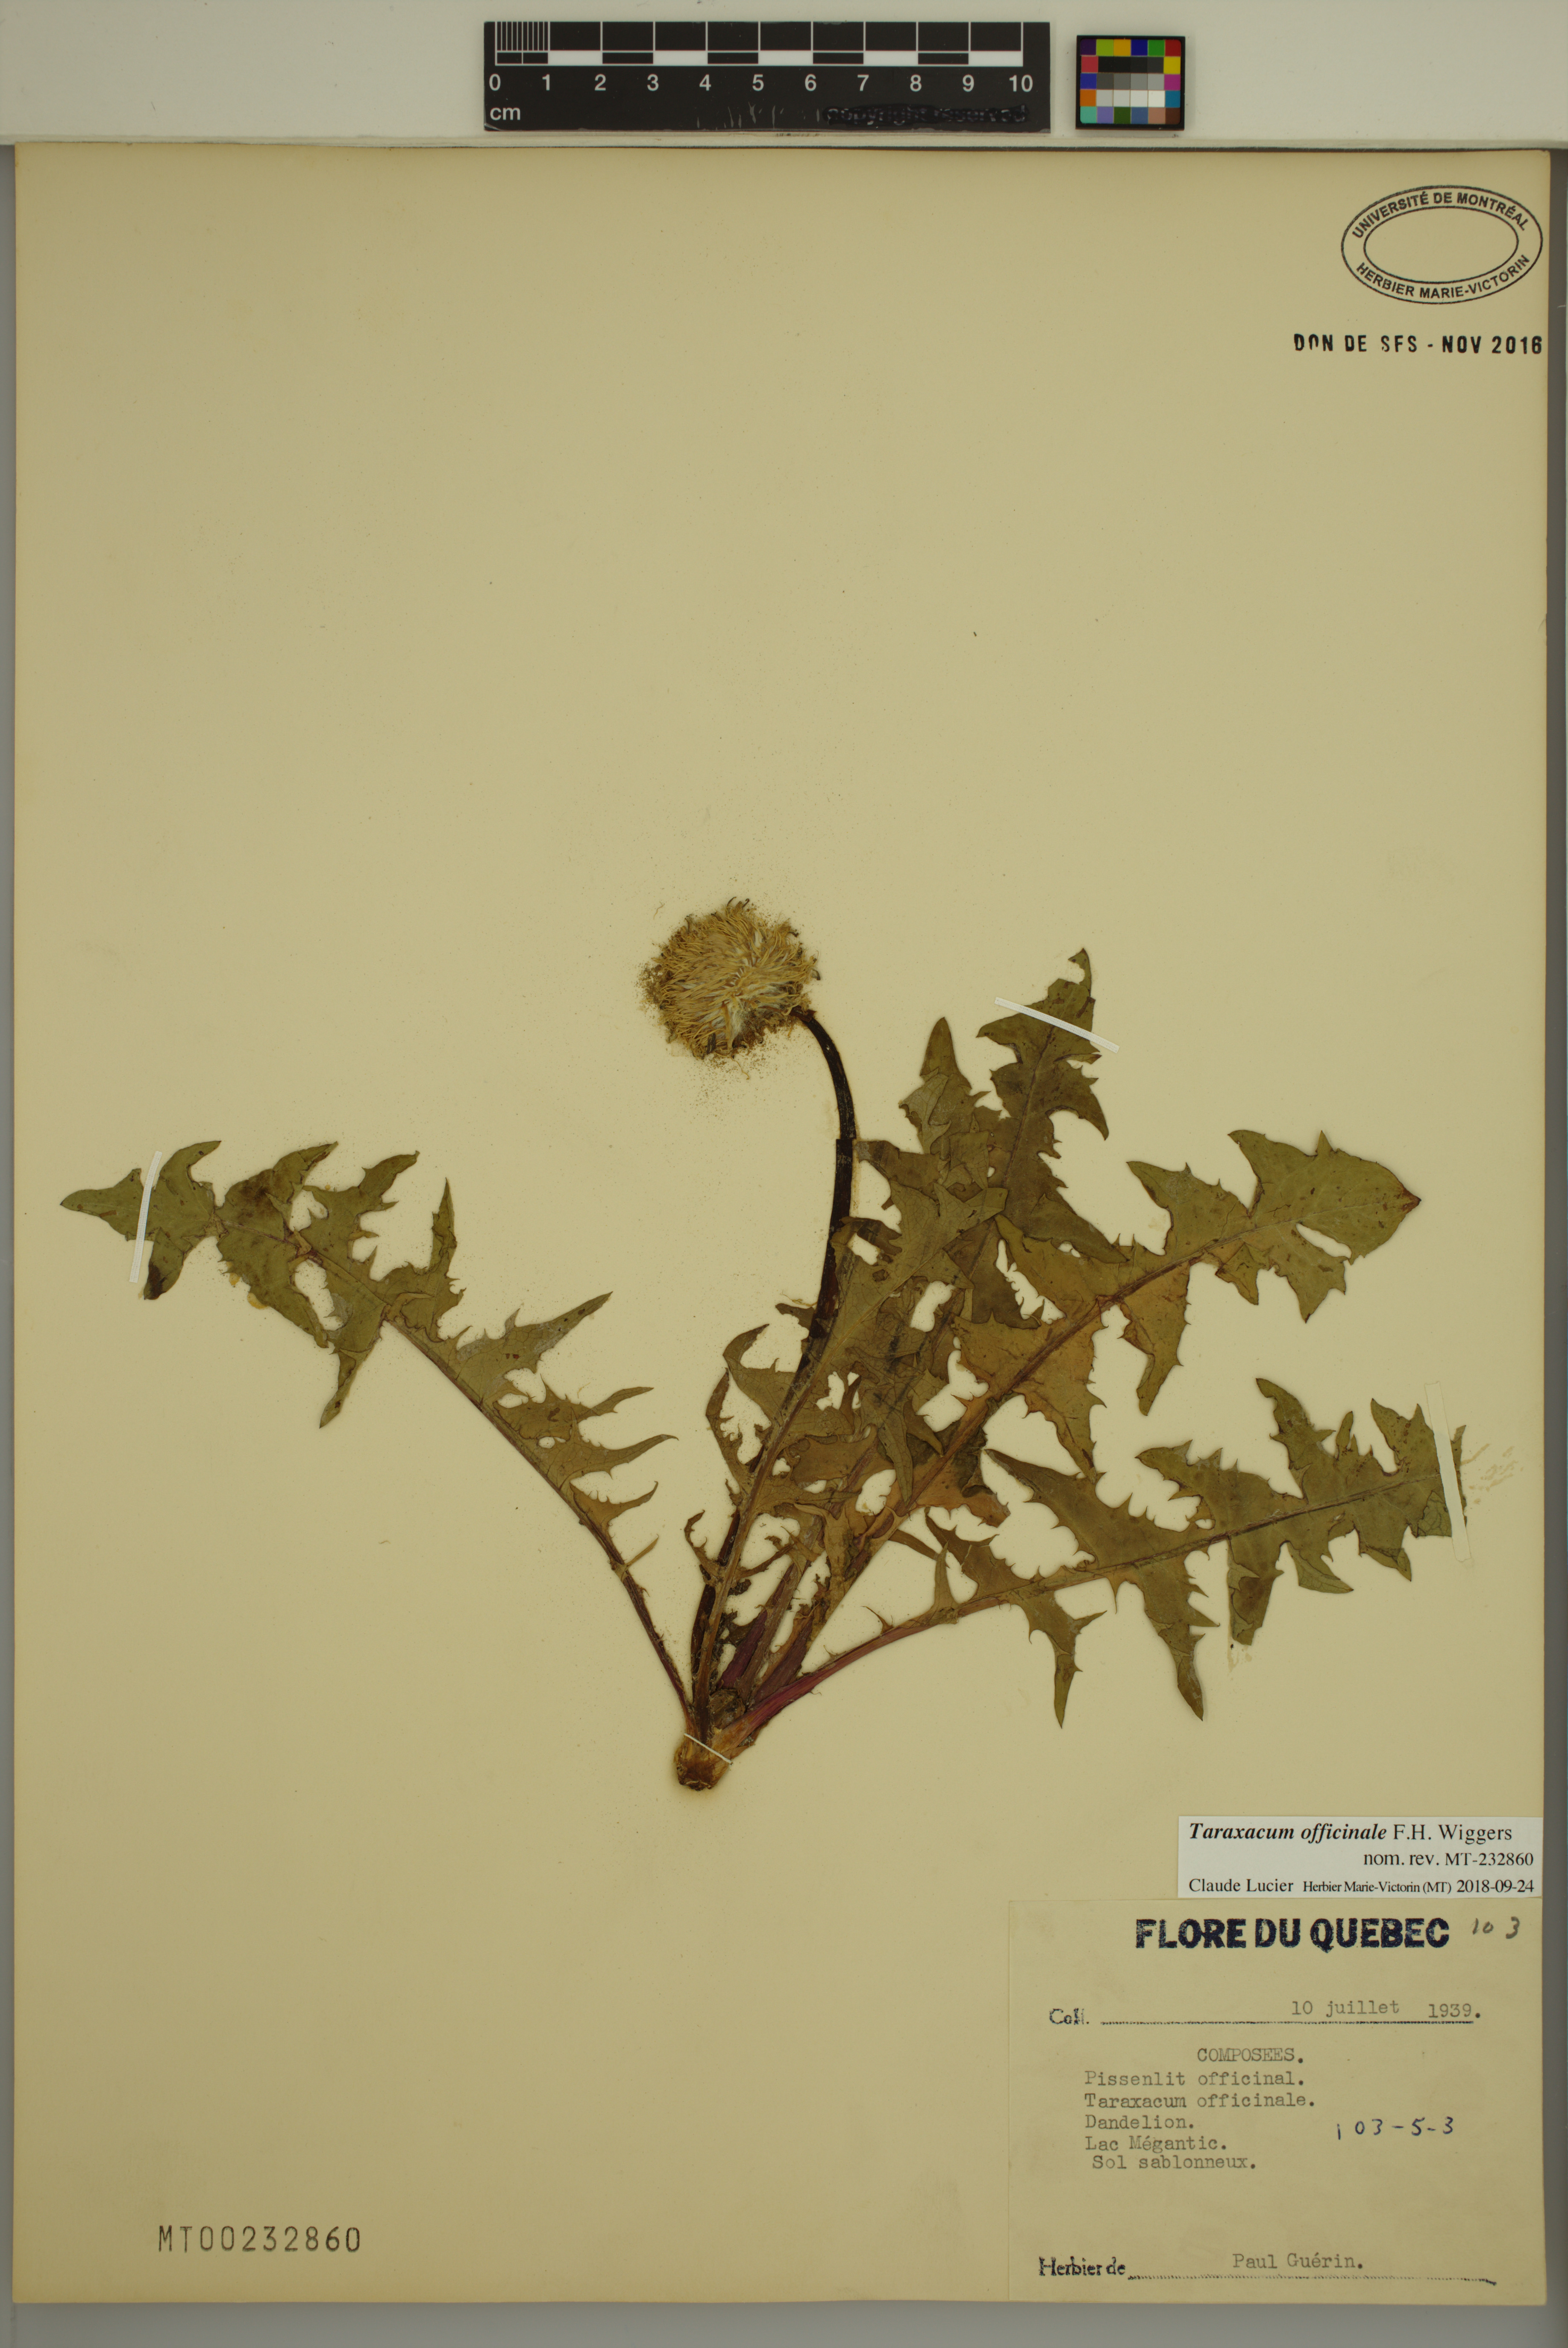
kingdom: Plantae
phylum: Tracheophyta
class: Magnoliopsida
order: Asterales
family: Asteraceae
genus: Taraxacum
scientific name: Taraxacum officinale
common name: Common dandelion
